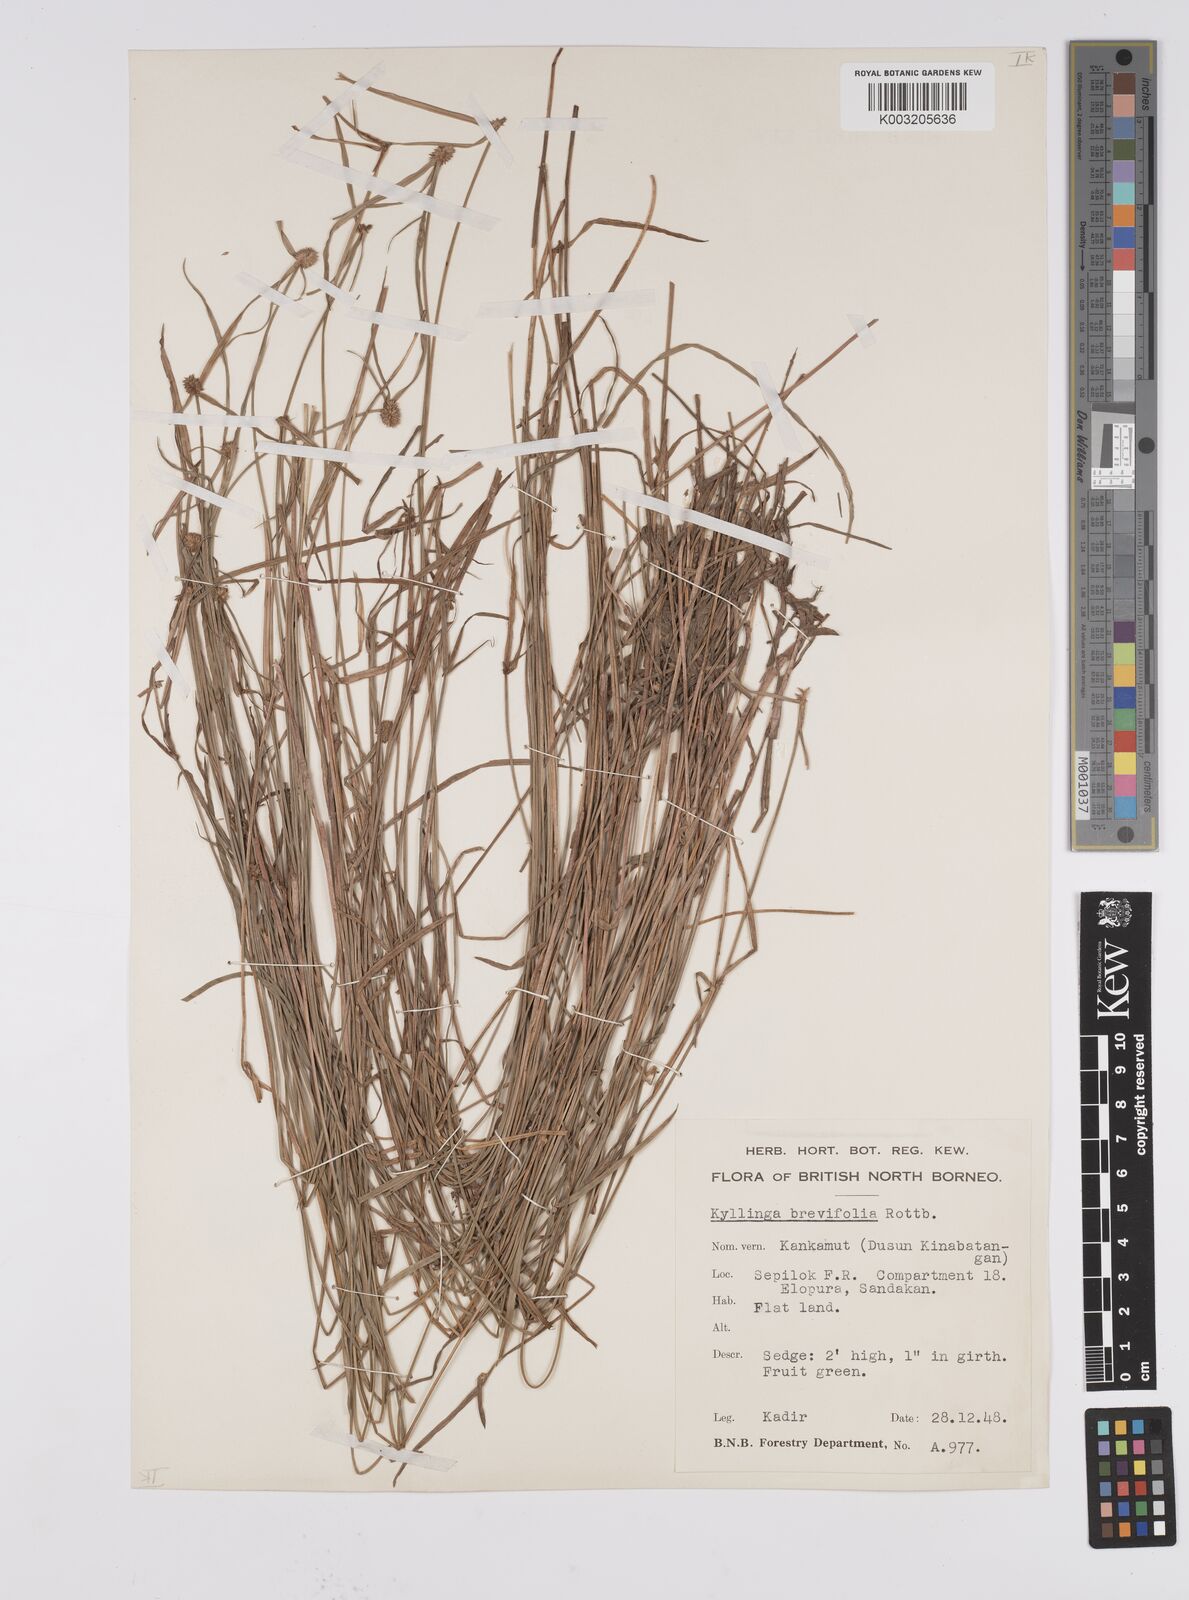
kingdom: Plantae
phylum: Tracheophyta
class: Liliopsida
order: Poales
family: Cyperaceae
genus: Cyperus
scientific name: Cyperus brevifolius
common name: Globe kyllinga
